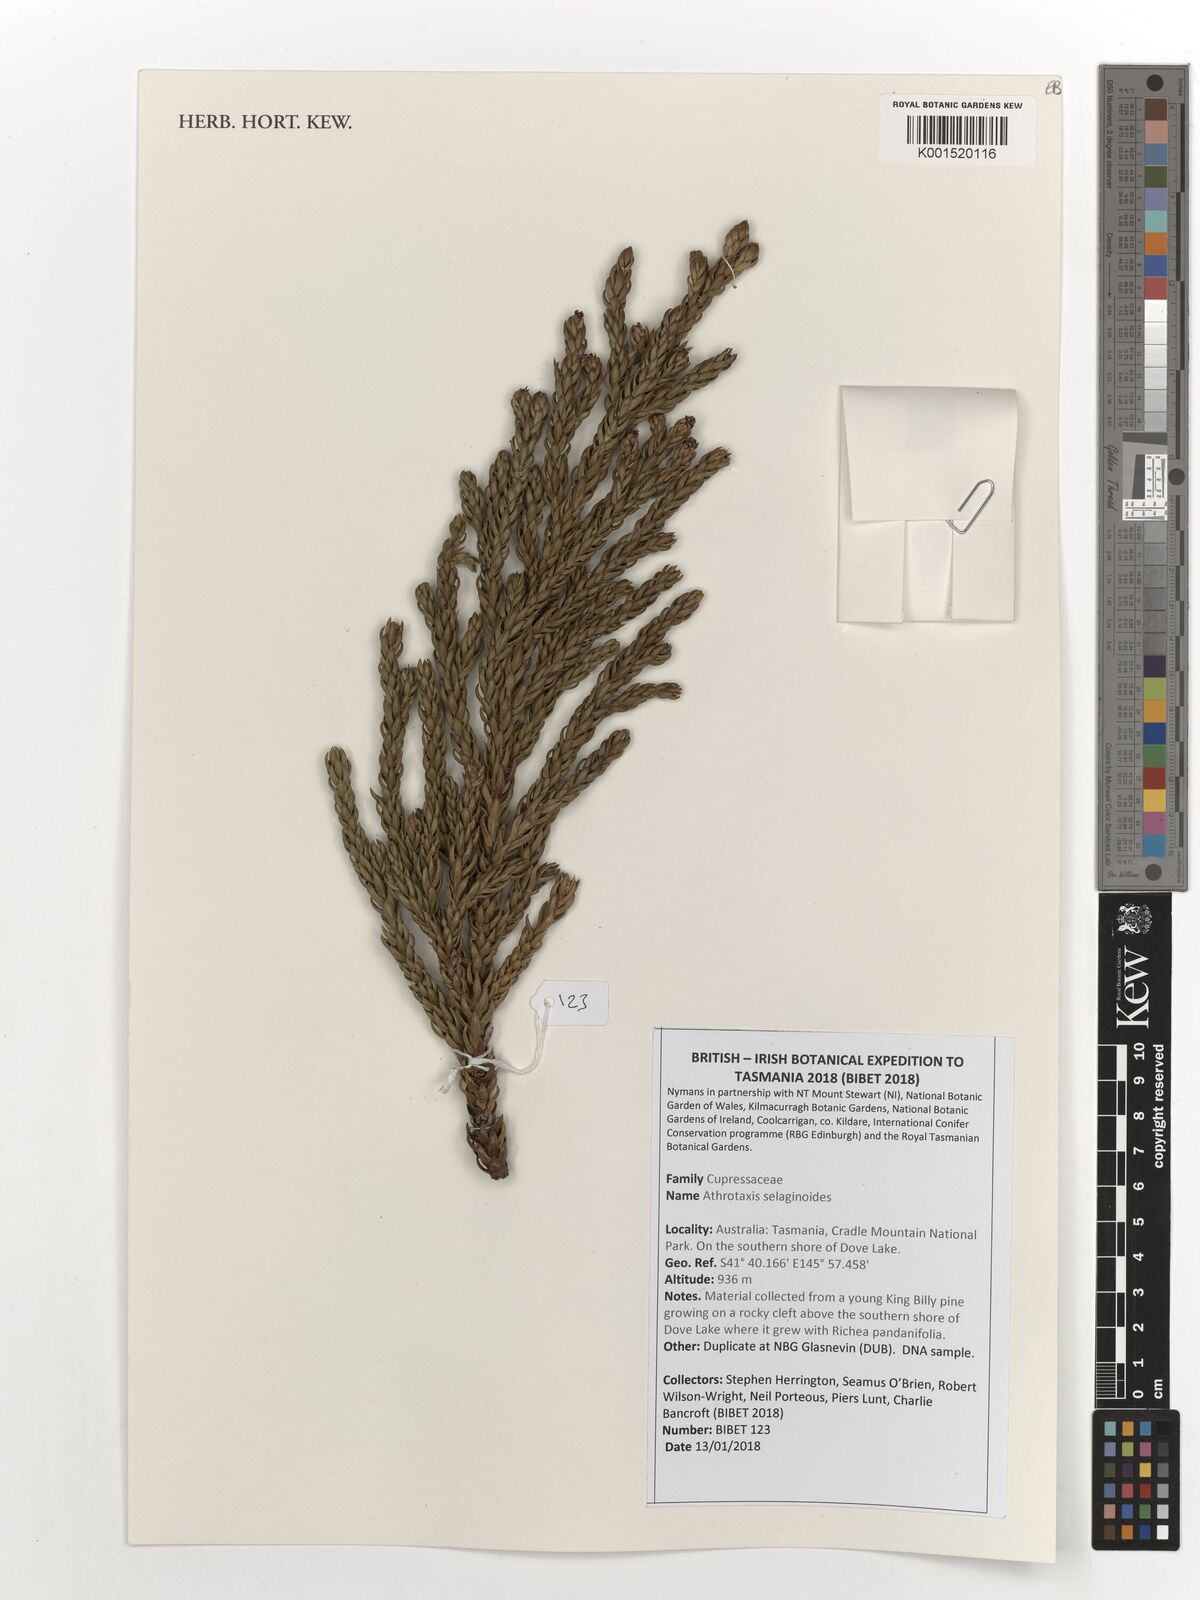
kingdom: Plantae
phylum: Tracheophyta
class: Pinopsida
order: Pinales
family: Cupressaceae
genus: Athrotaxis
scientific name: Athrotaxis selaginoides
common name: King william pine
